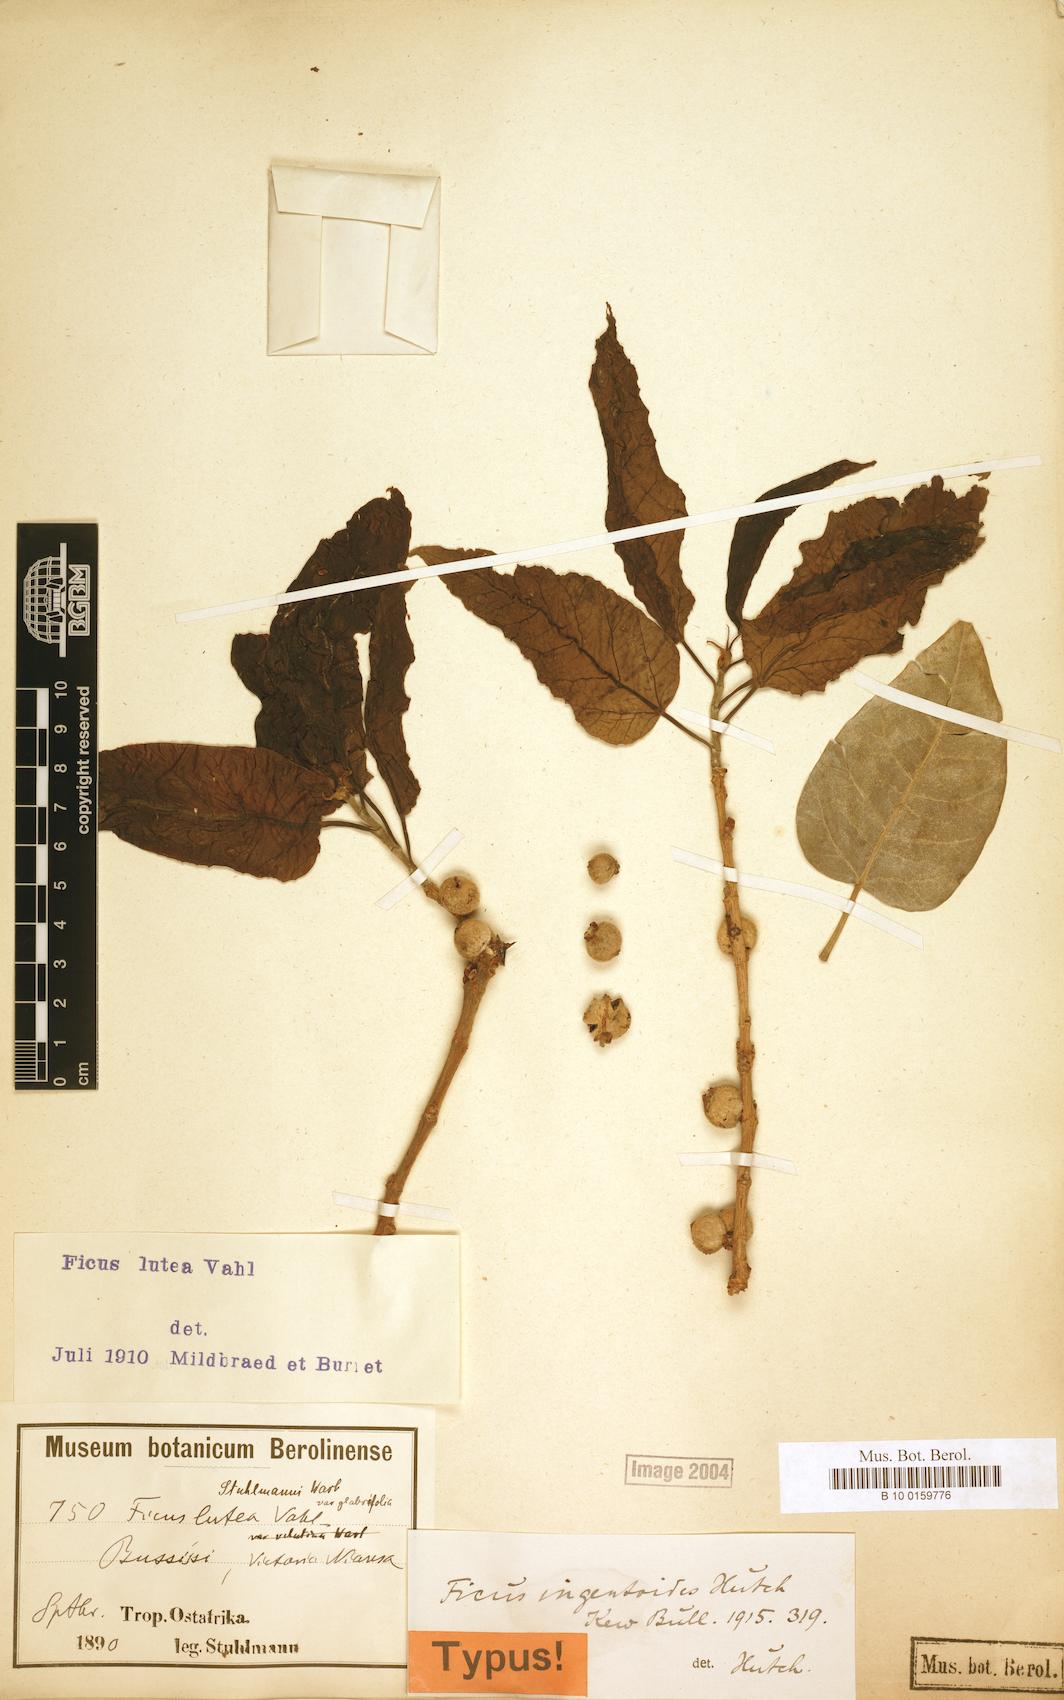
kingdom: Plantae
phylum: Tracheophyta
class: Magnoliopsida
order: Rosales
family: Moraceae
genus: Ficus
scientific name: Ficus ingens
